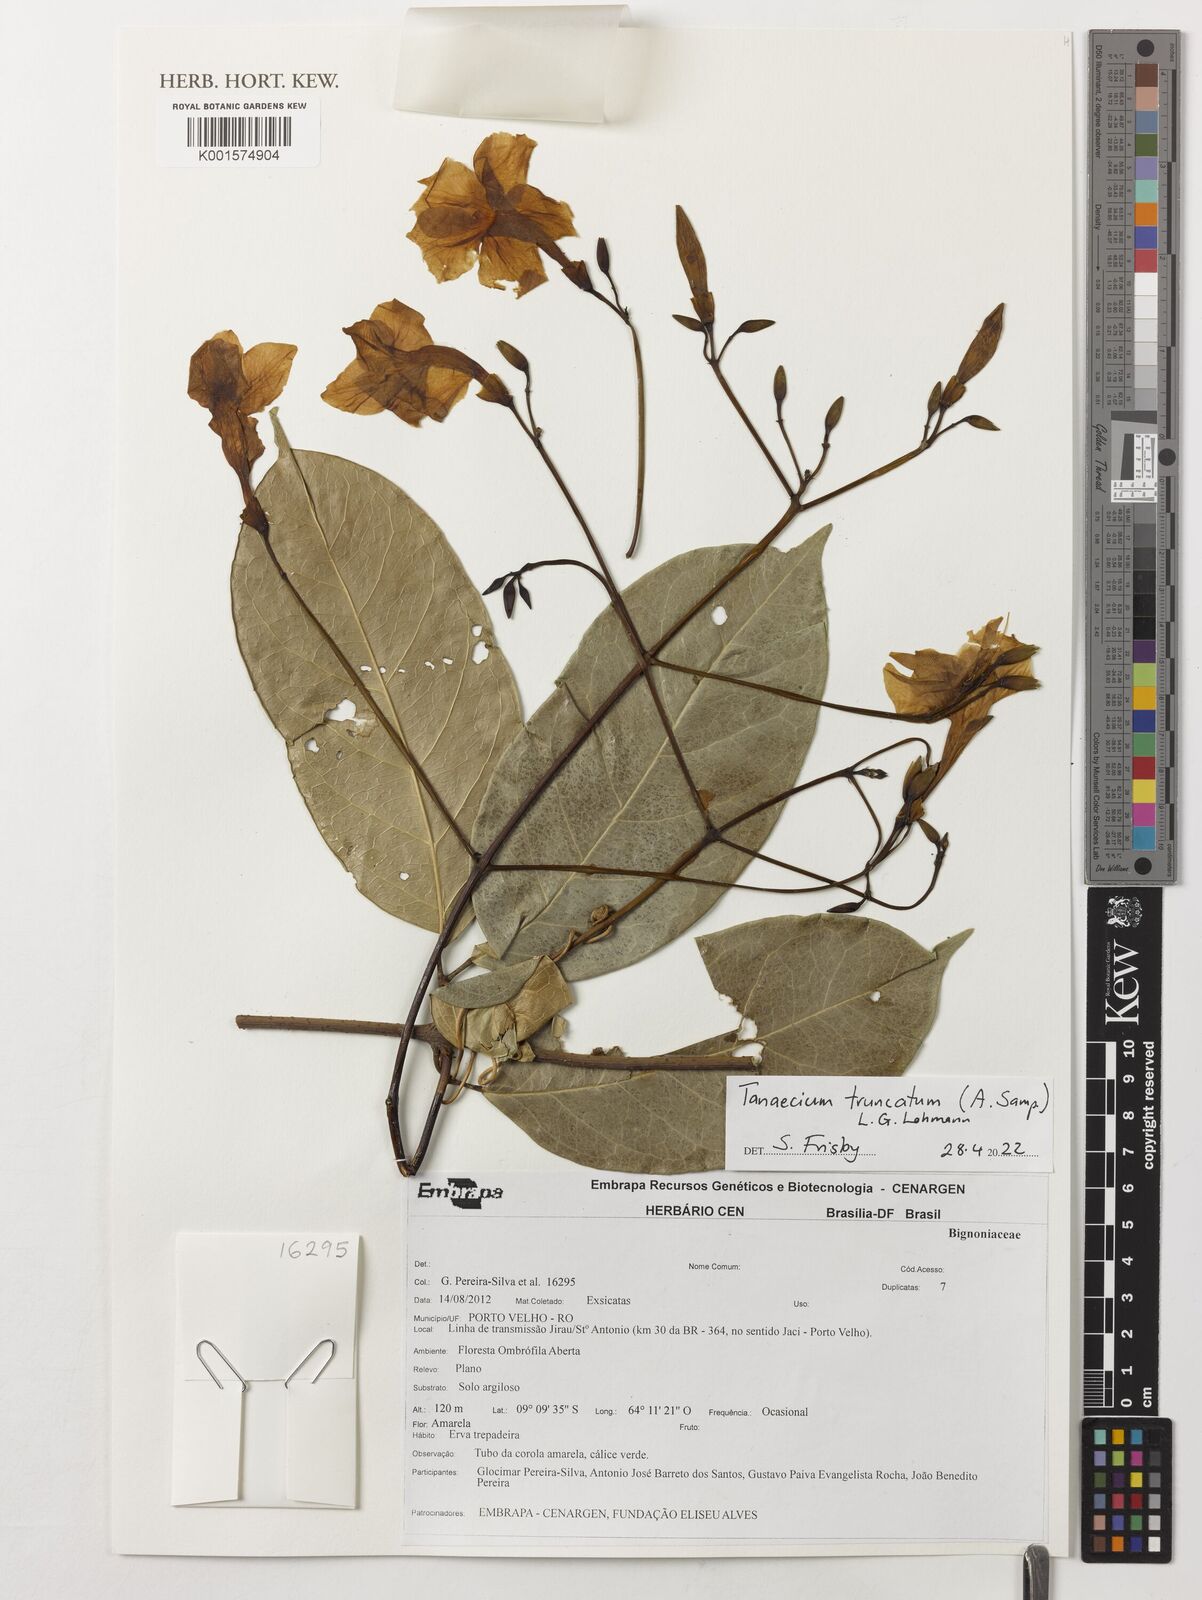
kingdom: Plantae
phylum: Tracheophyta
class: Magnoliopsida
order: Lamiales
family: Bignoniaceae
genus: Tanaecium
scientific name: Tanaecium truncatum
